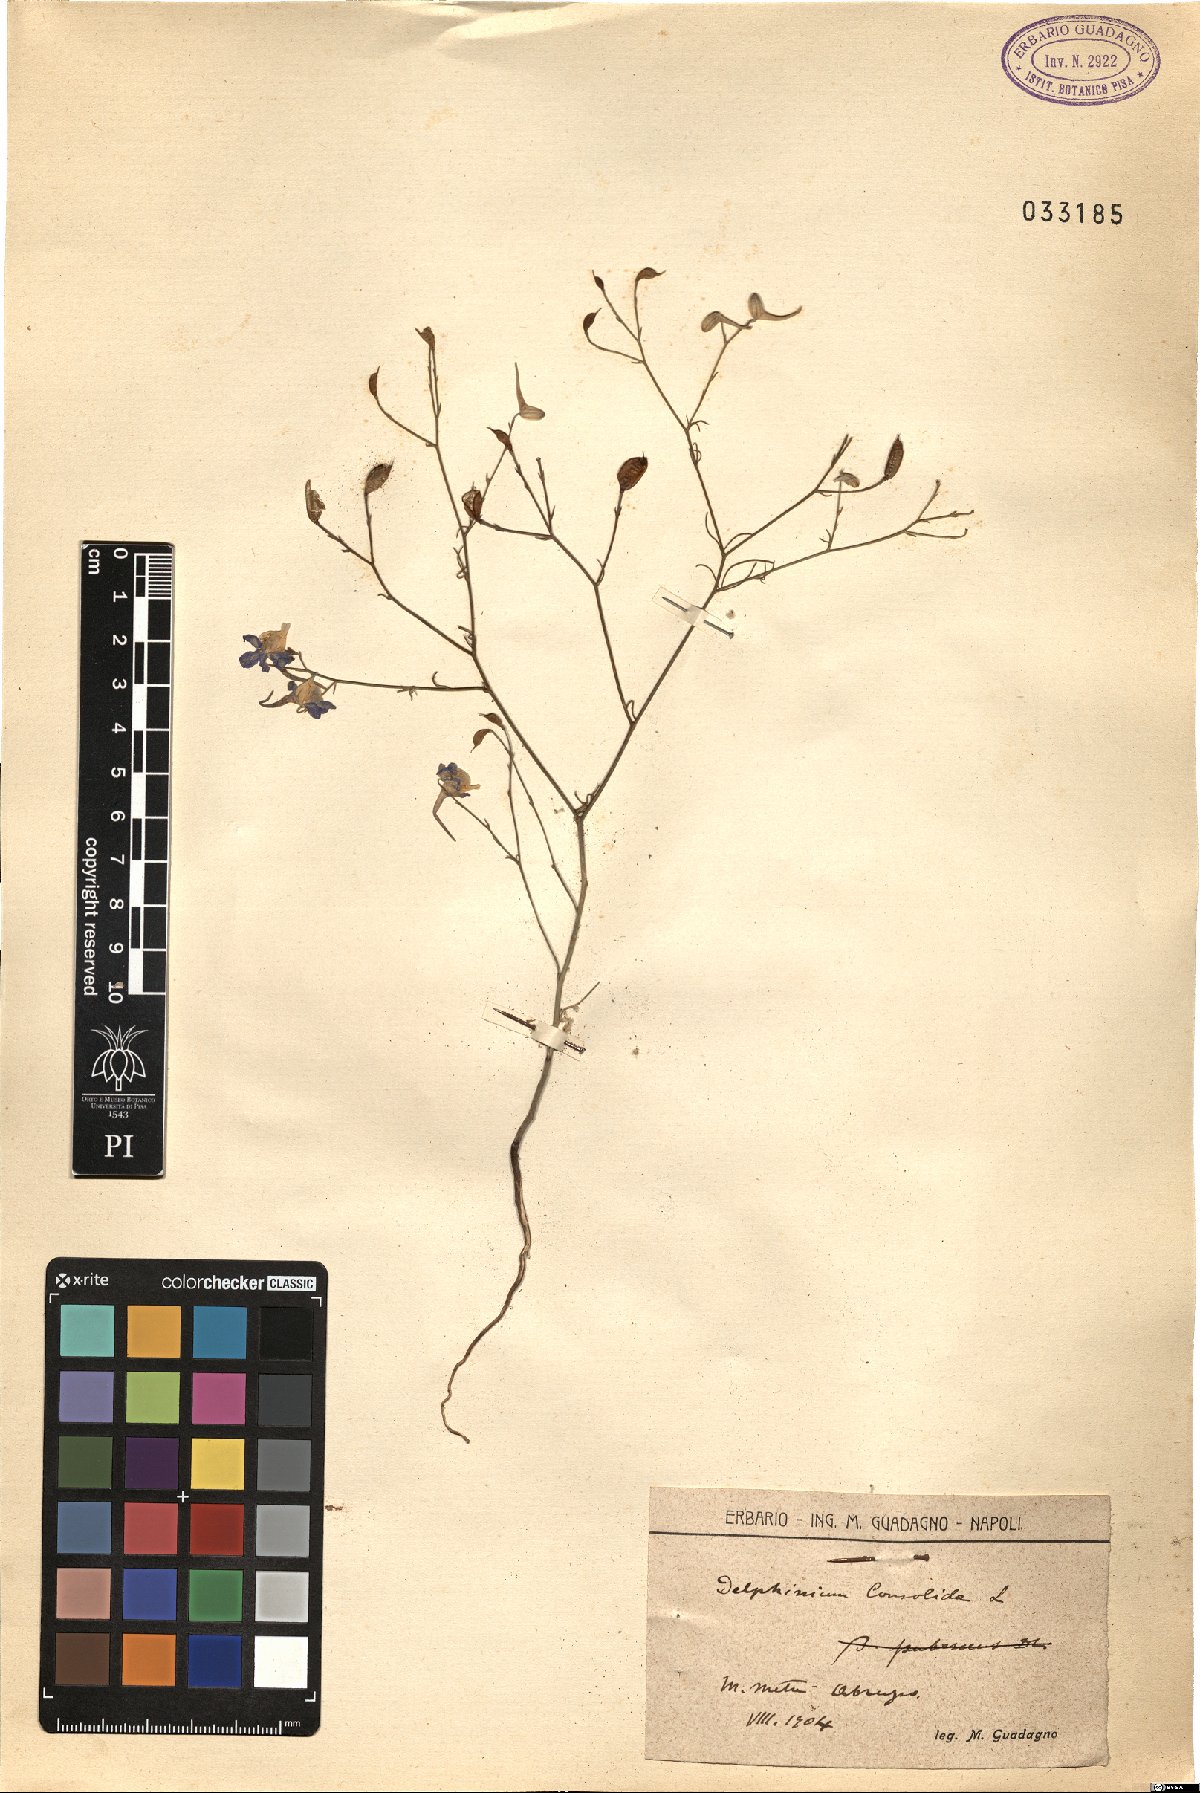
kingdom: Plantae
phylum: Tracheophyta
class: Magnoliopsida
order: Ranunculales
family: Ranunculaceae
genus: Delphinium
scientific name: Delphinium consolida
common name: Branching larkspur
